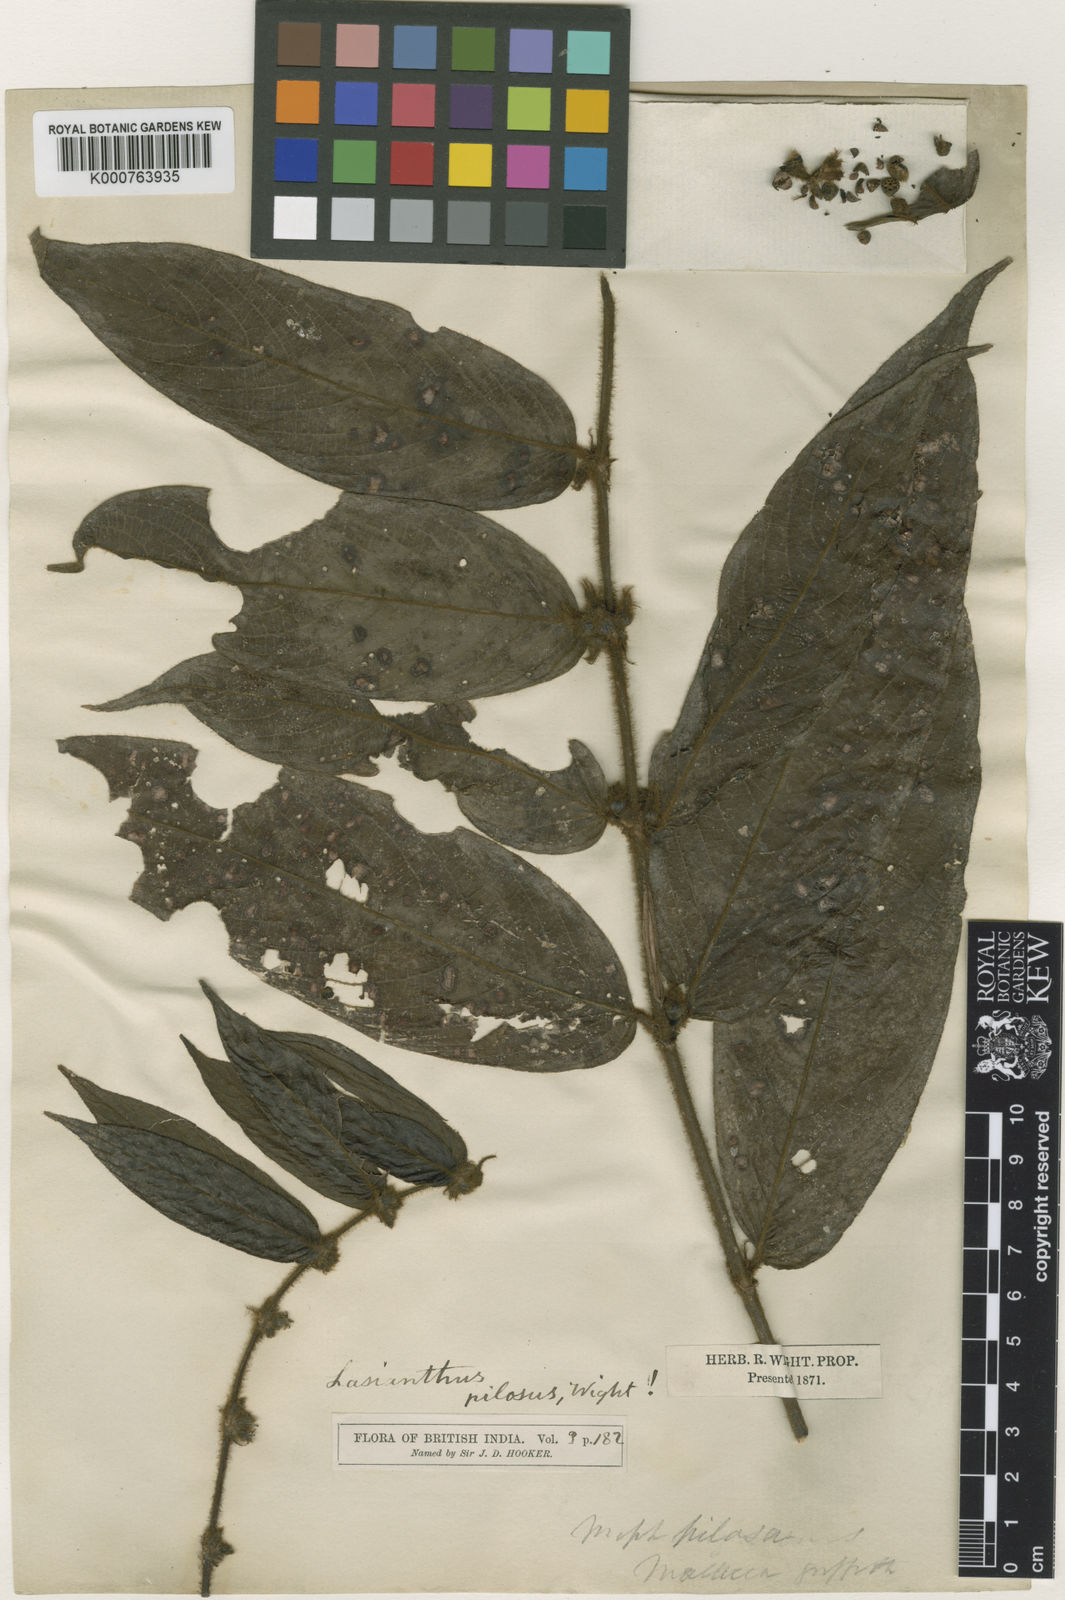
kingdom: Plantae
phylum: Tracheophyta
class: Magnoliopsida
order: Gentianales
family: Rubiaceae
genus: Lasianthus
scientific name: Lasianthus pilosus
